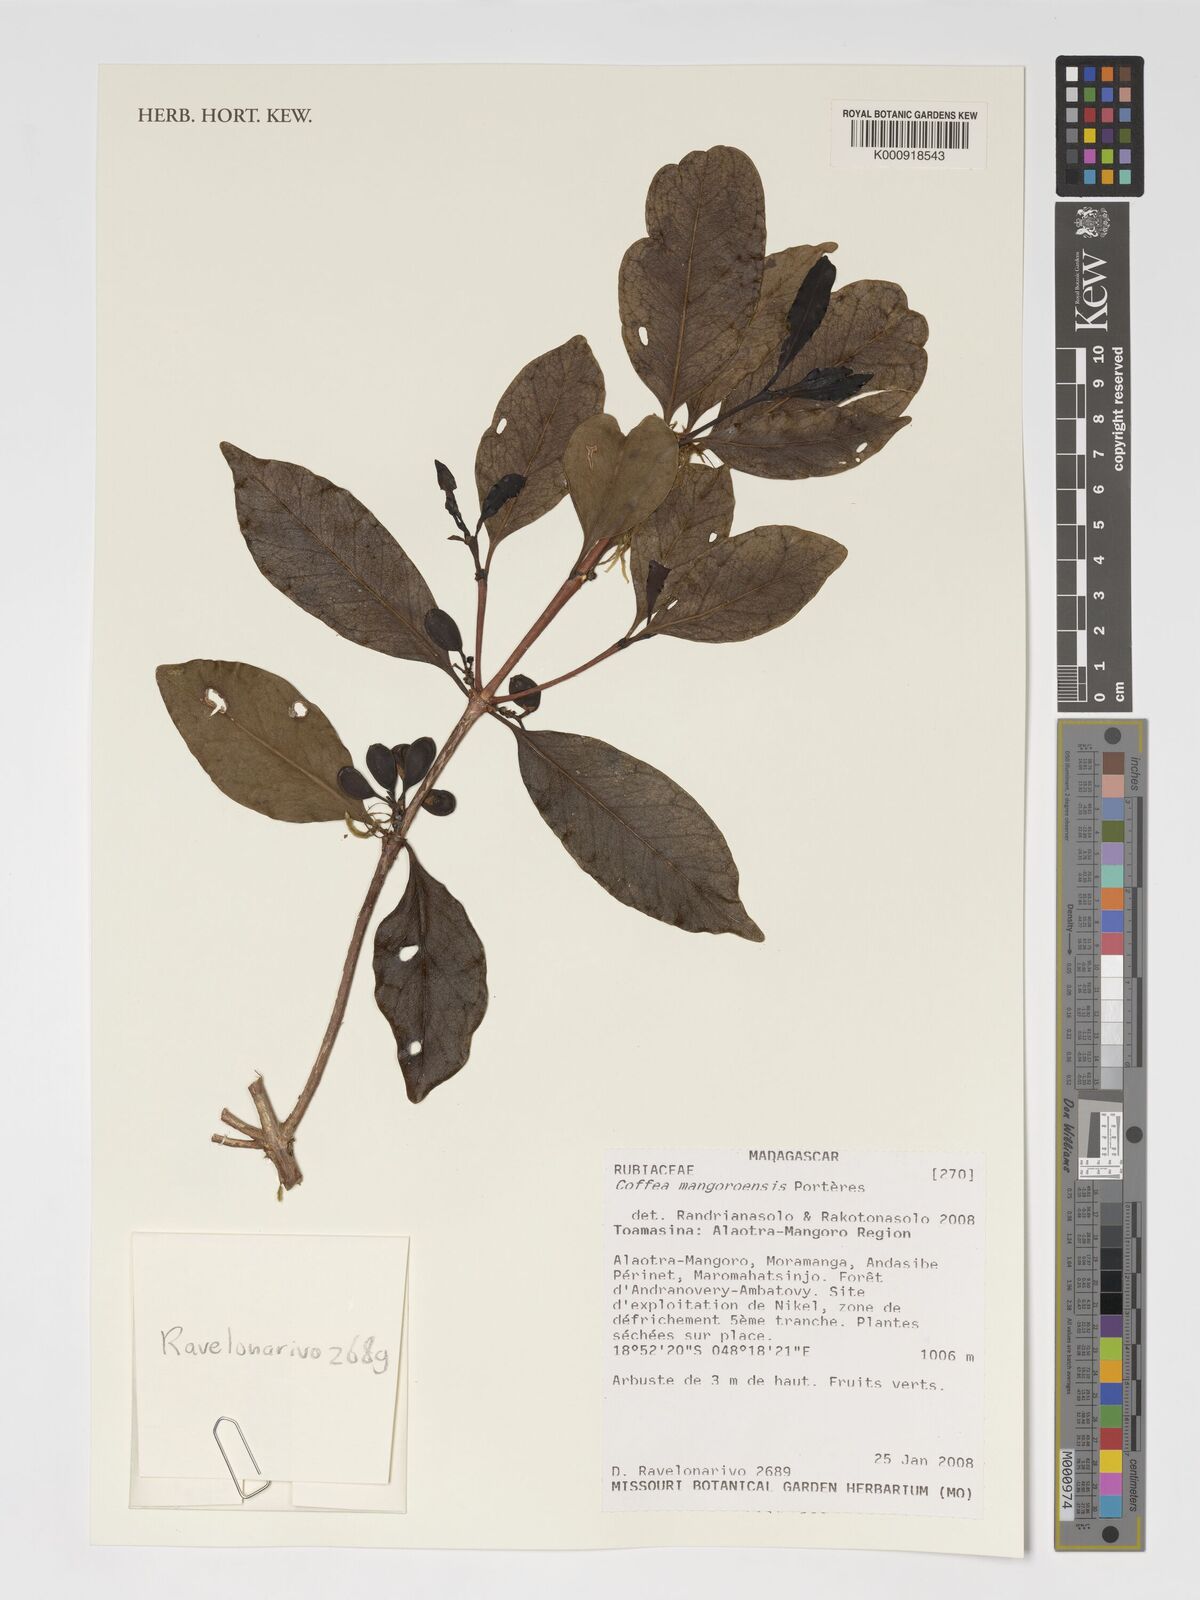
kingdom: Plantae
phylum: Tracheophyta
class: Magnoliopsida
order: Gentianales
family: Rubiaceae
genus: Coffea
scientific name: Coffea mangoroensis
